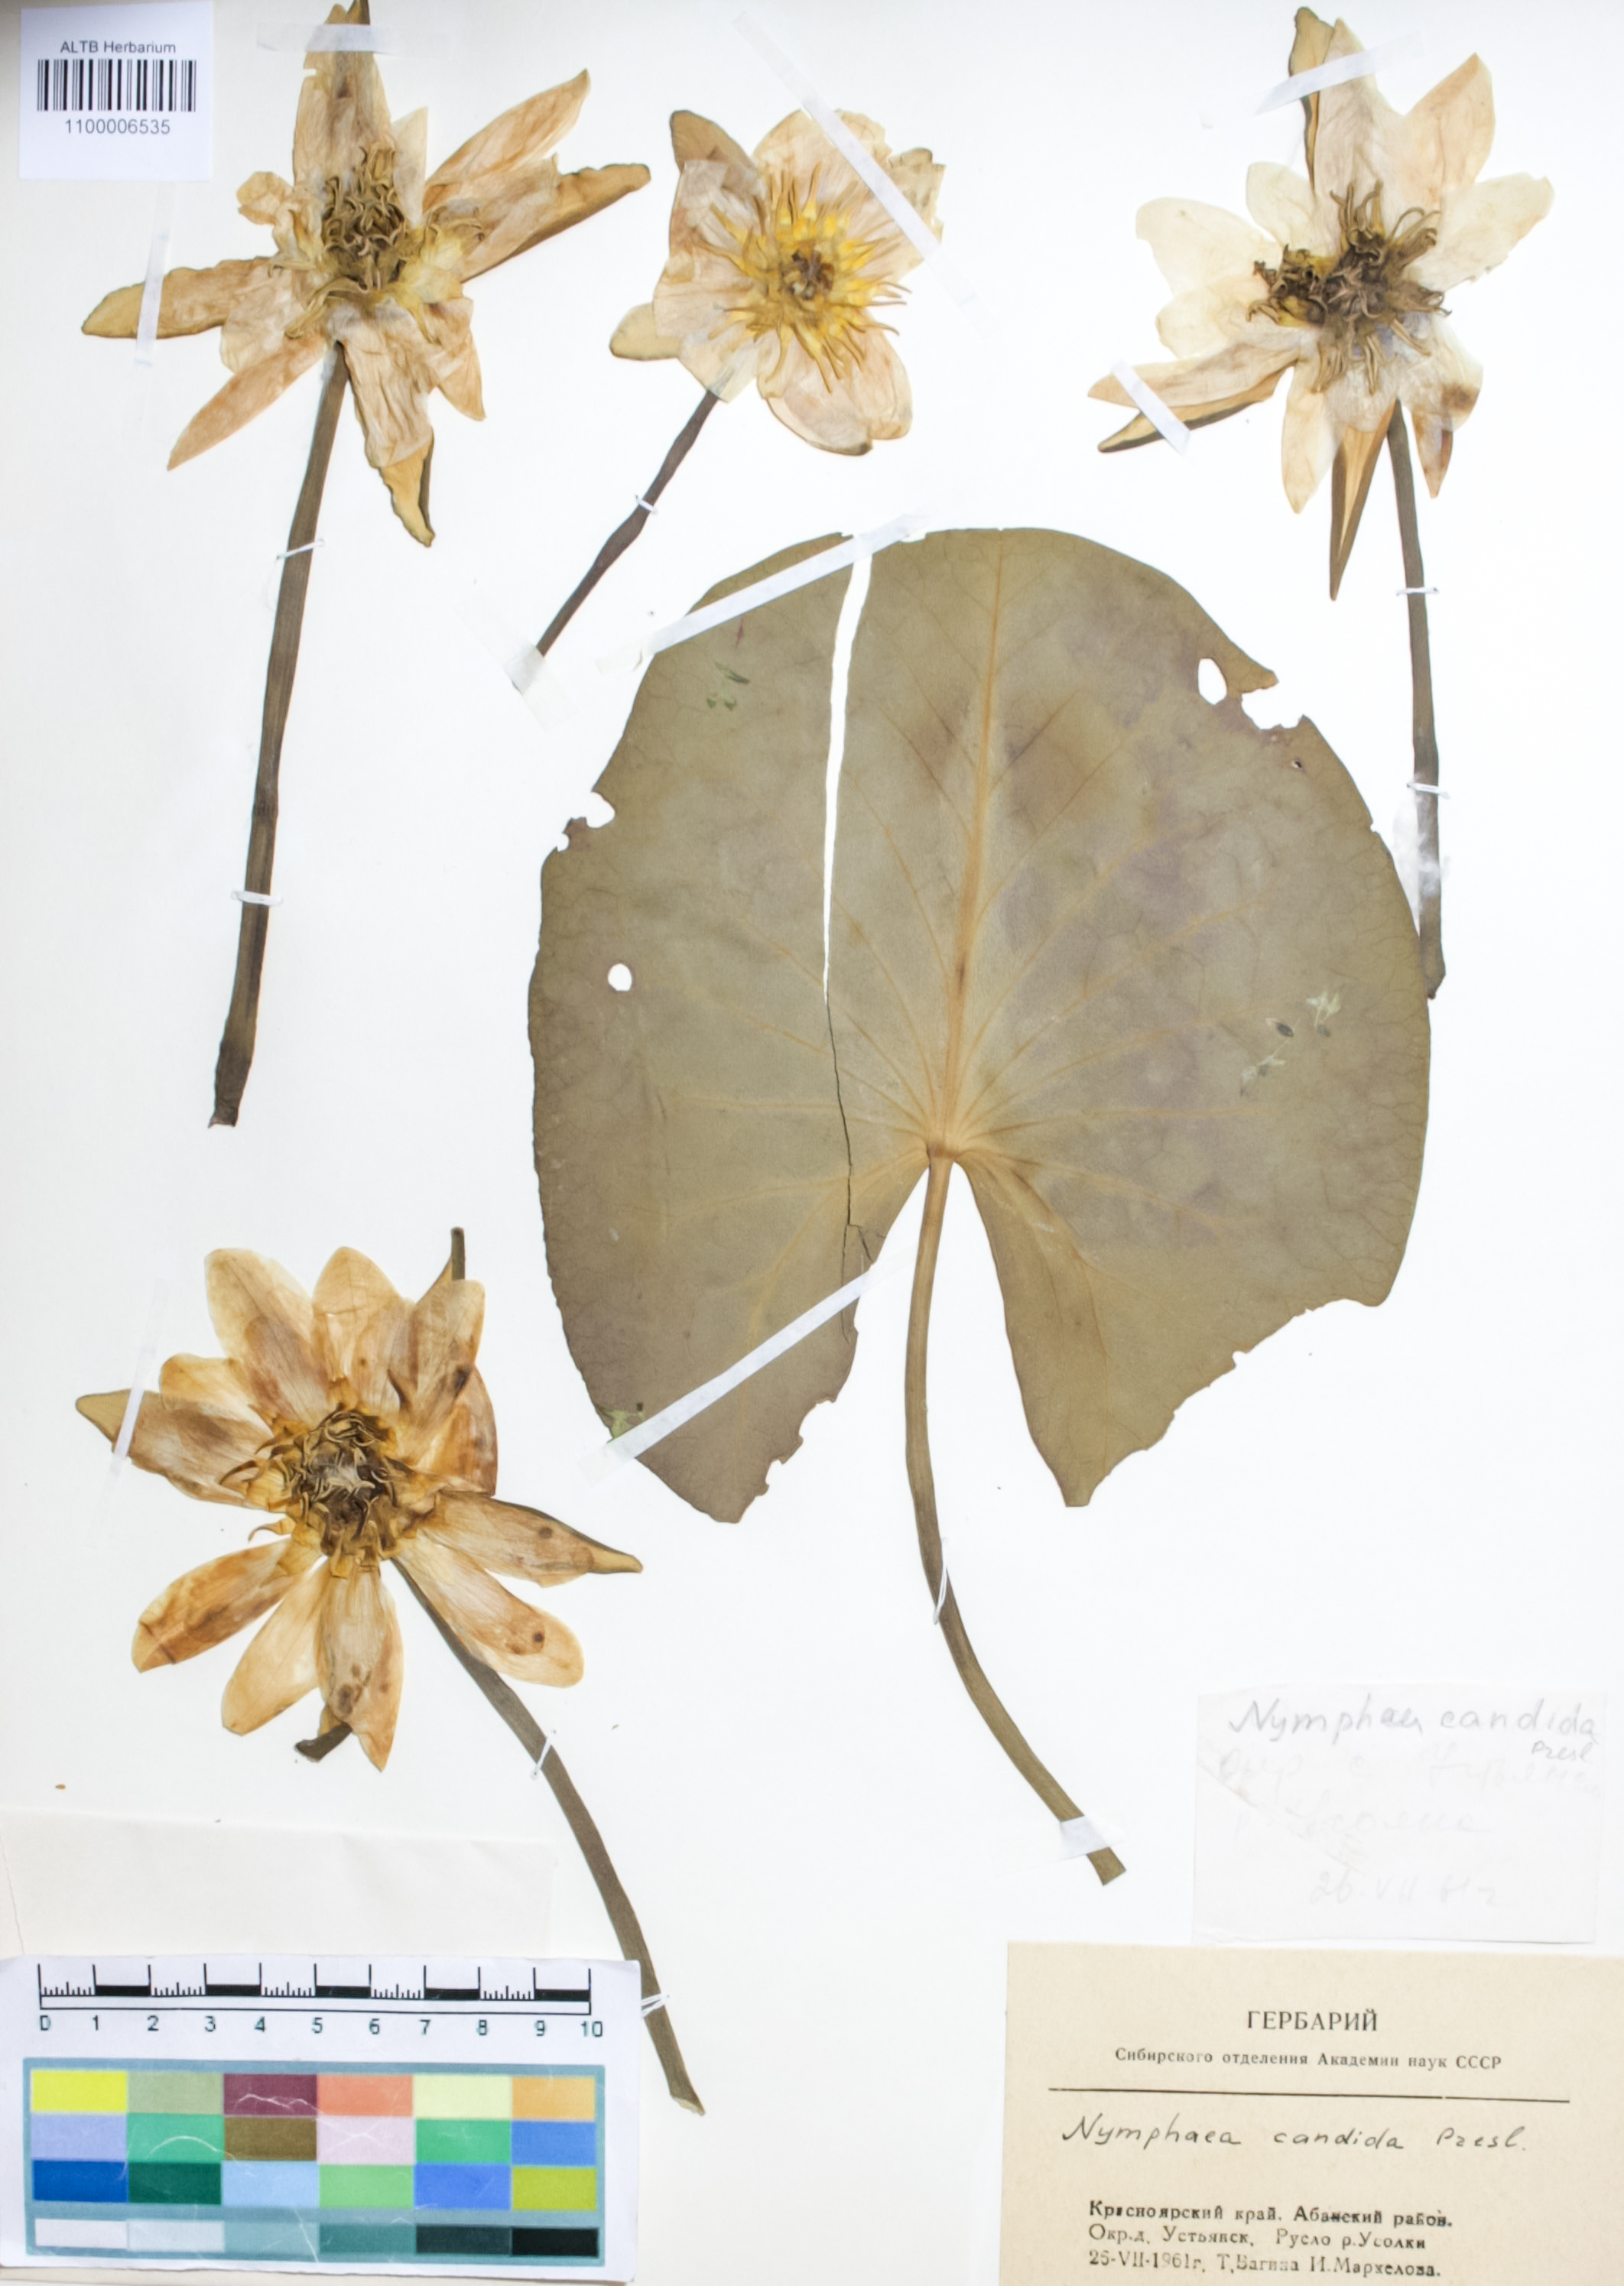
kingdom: Plantae
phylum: Tracheophyta
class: Magnoliopsida
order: Nymphaeales
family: Nymphaeaceae
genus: Nymphaea
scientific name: Nymphaea candida
